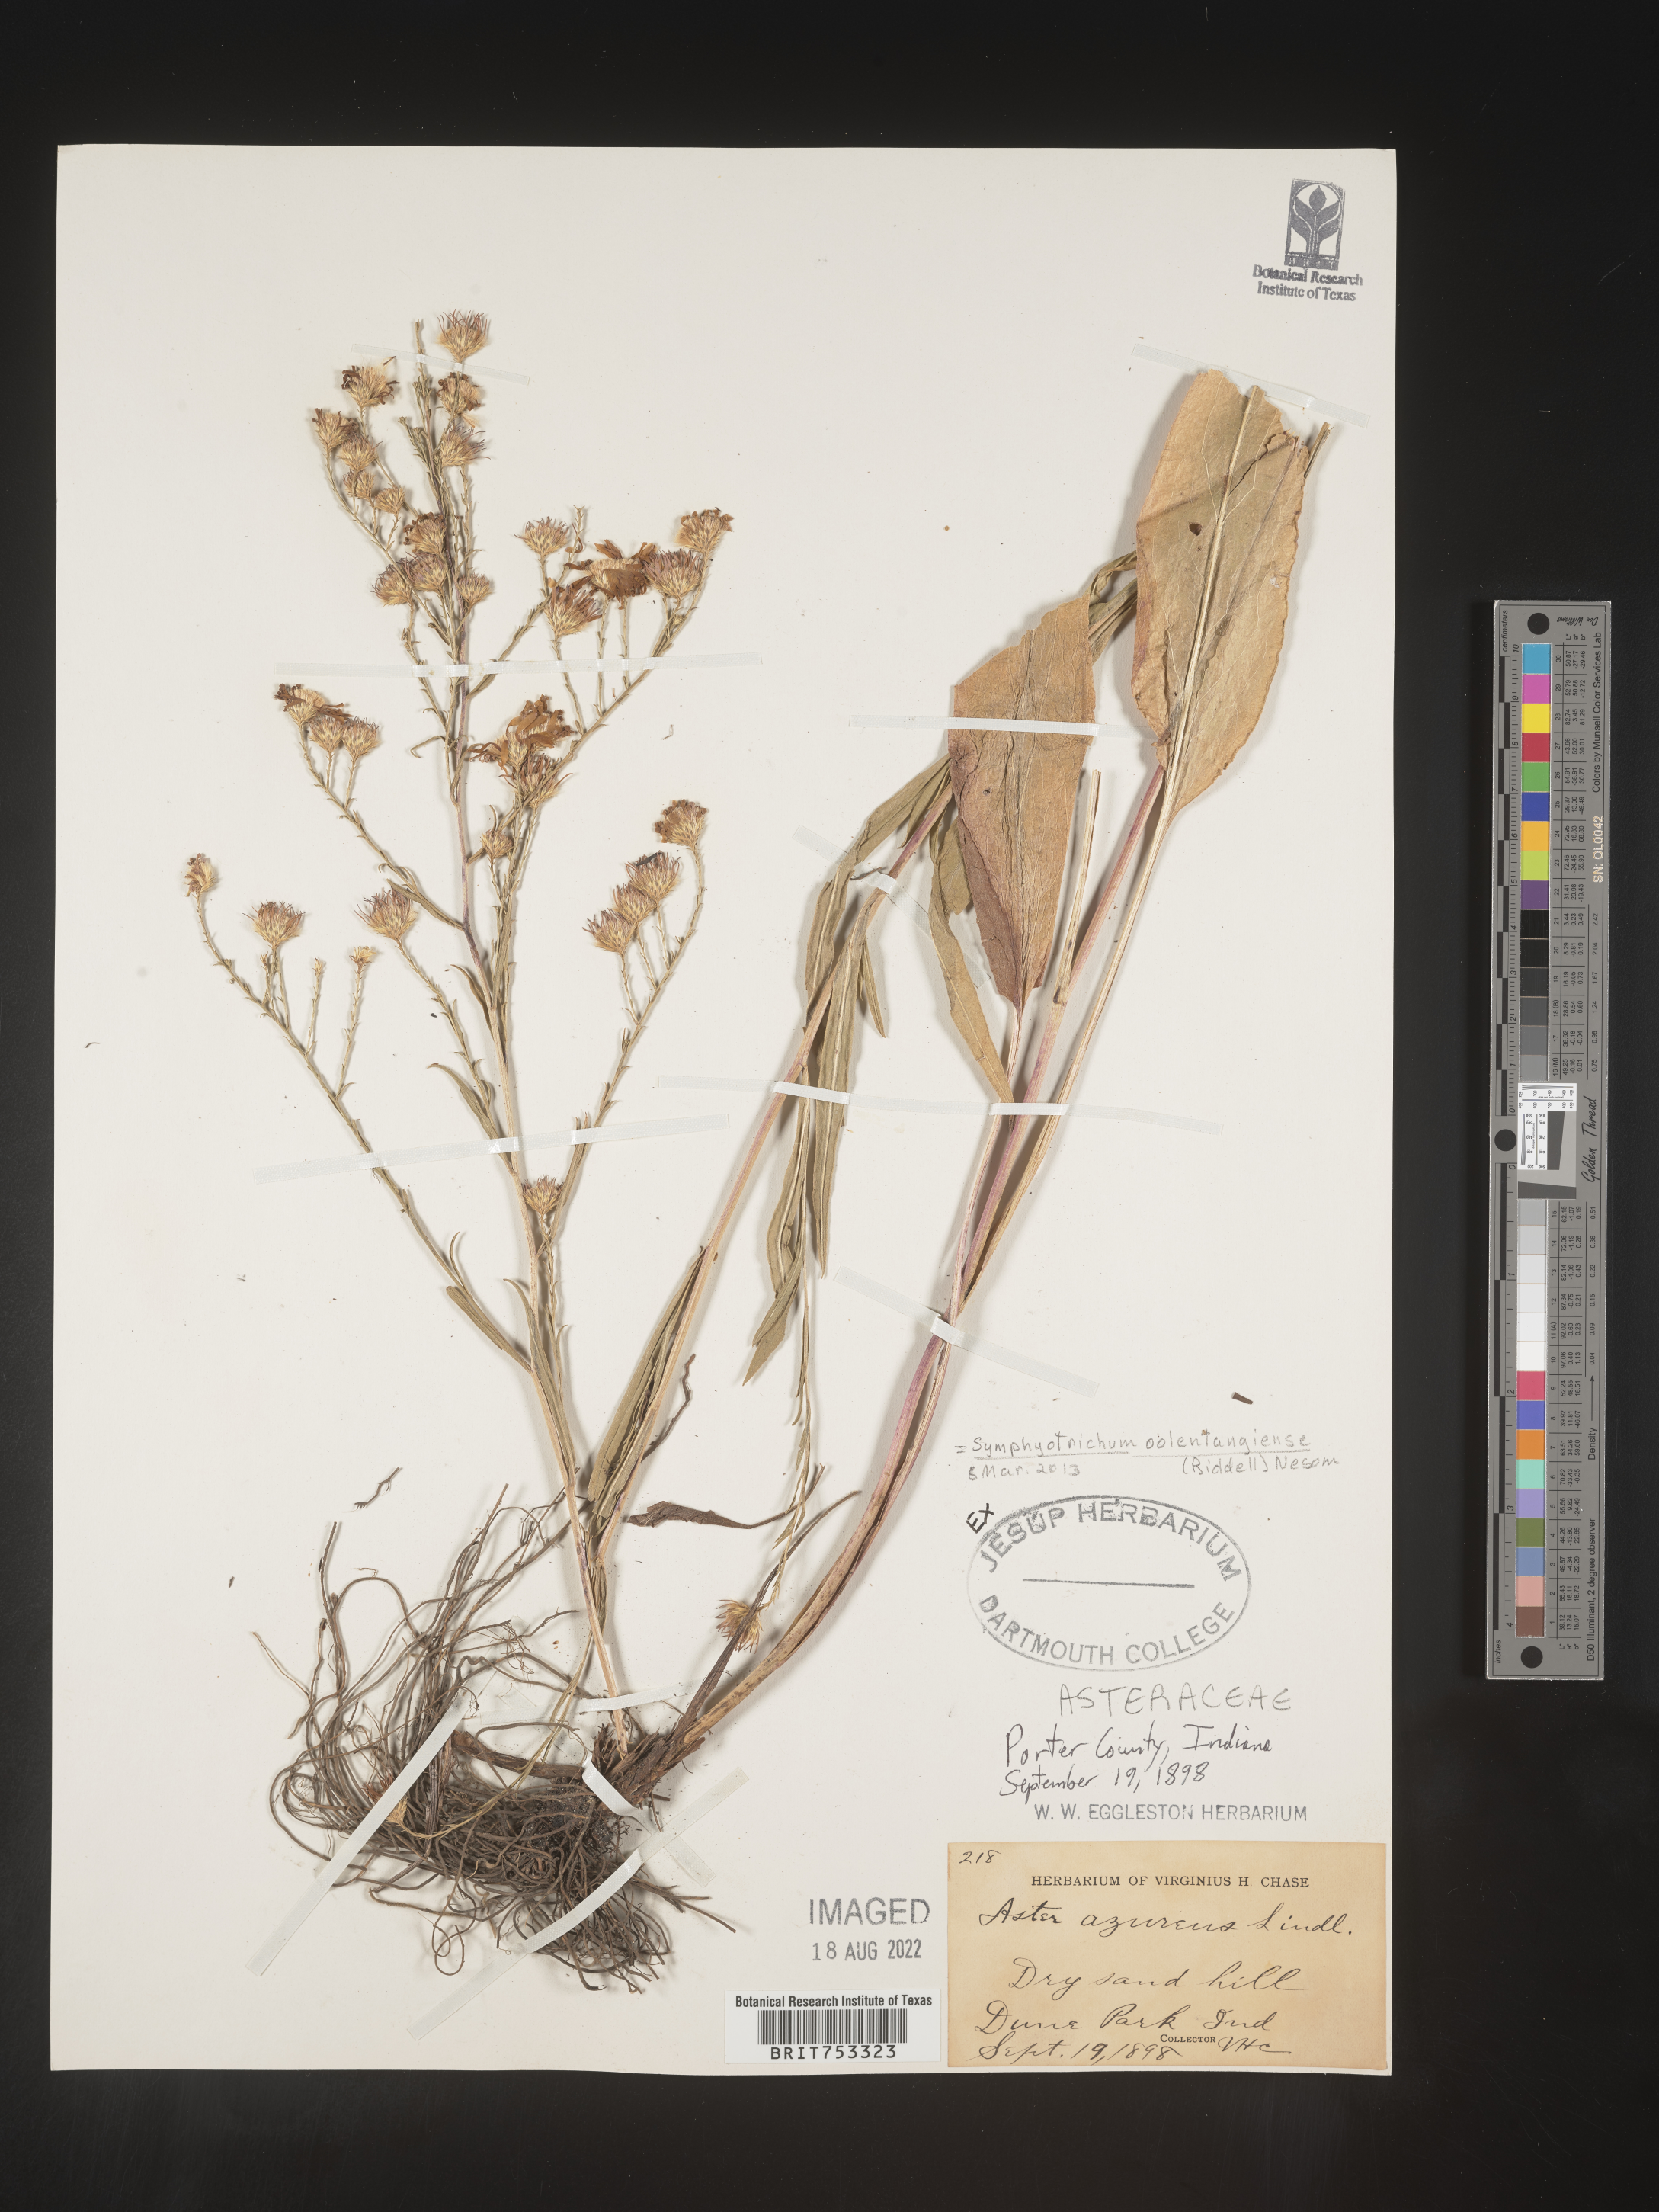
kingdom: Plantae
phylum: Tracheophyta
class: Magnoliopsida
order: Asterales
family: Asteraceae
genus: Symphyotrichum
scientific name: Symphyotrichum oolentangiense
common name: Azure aster
